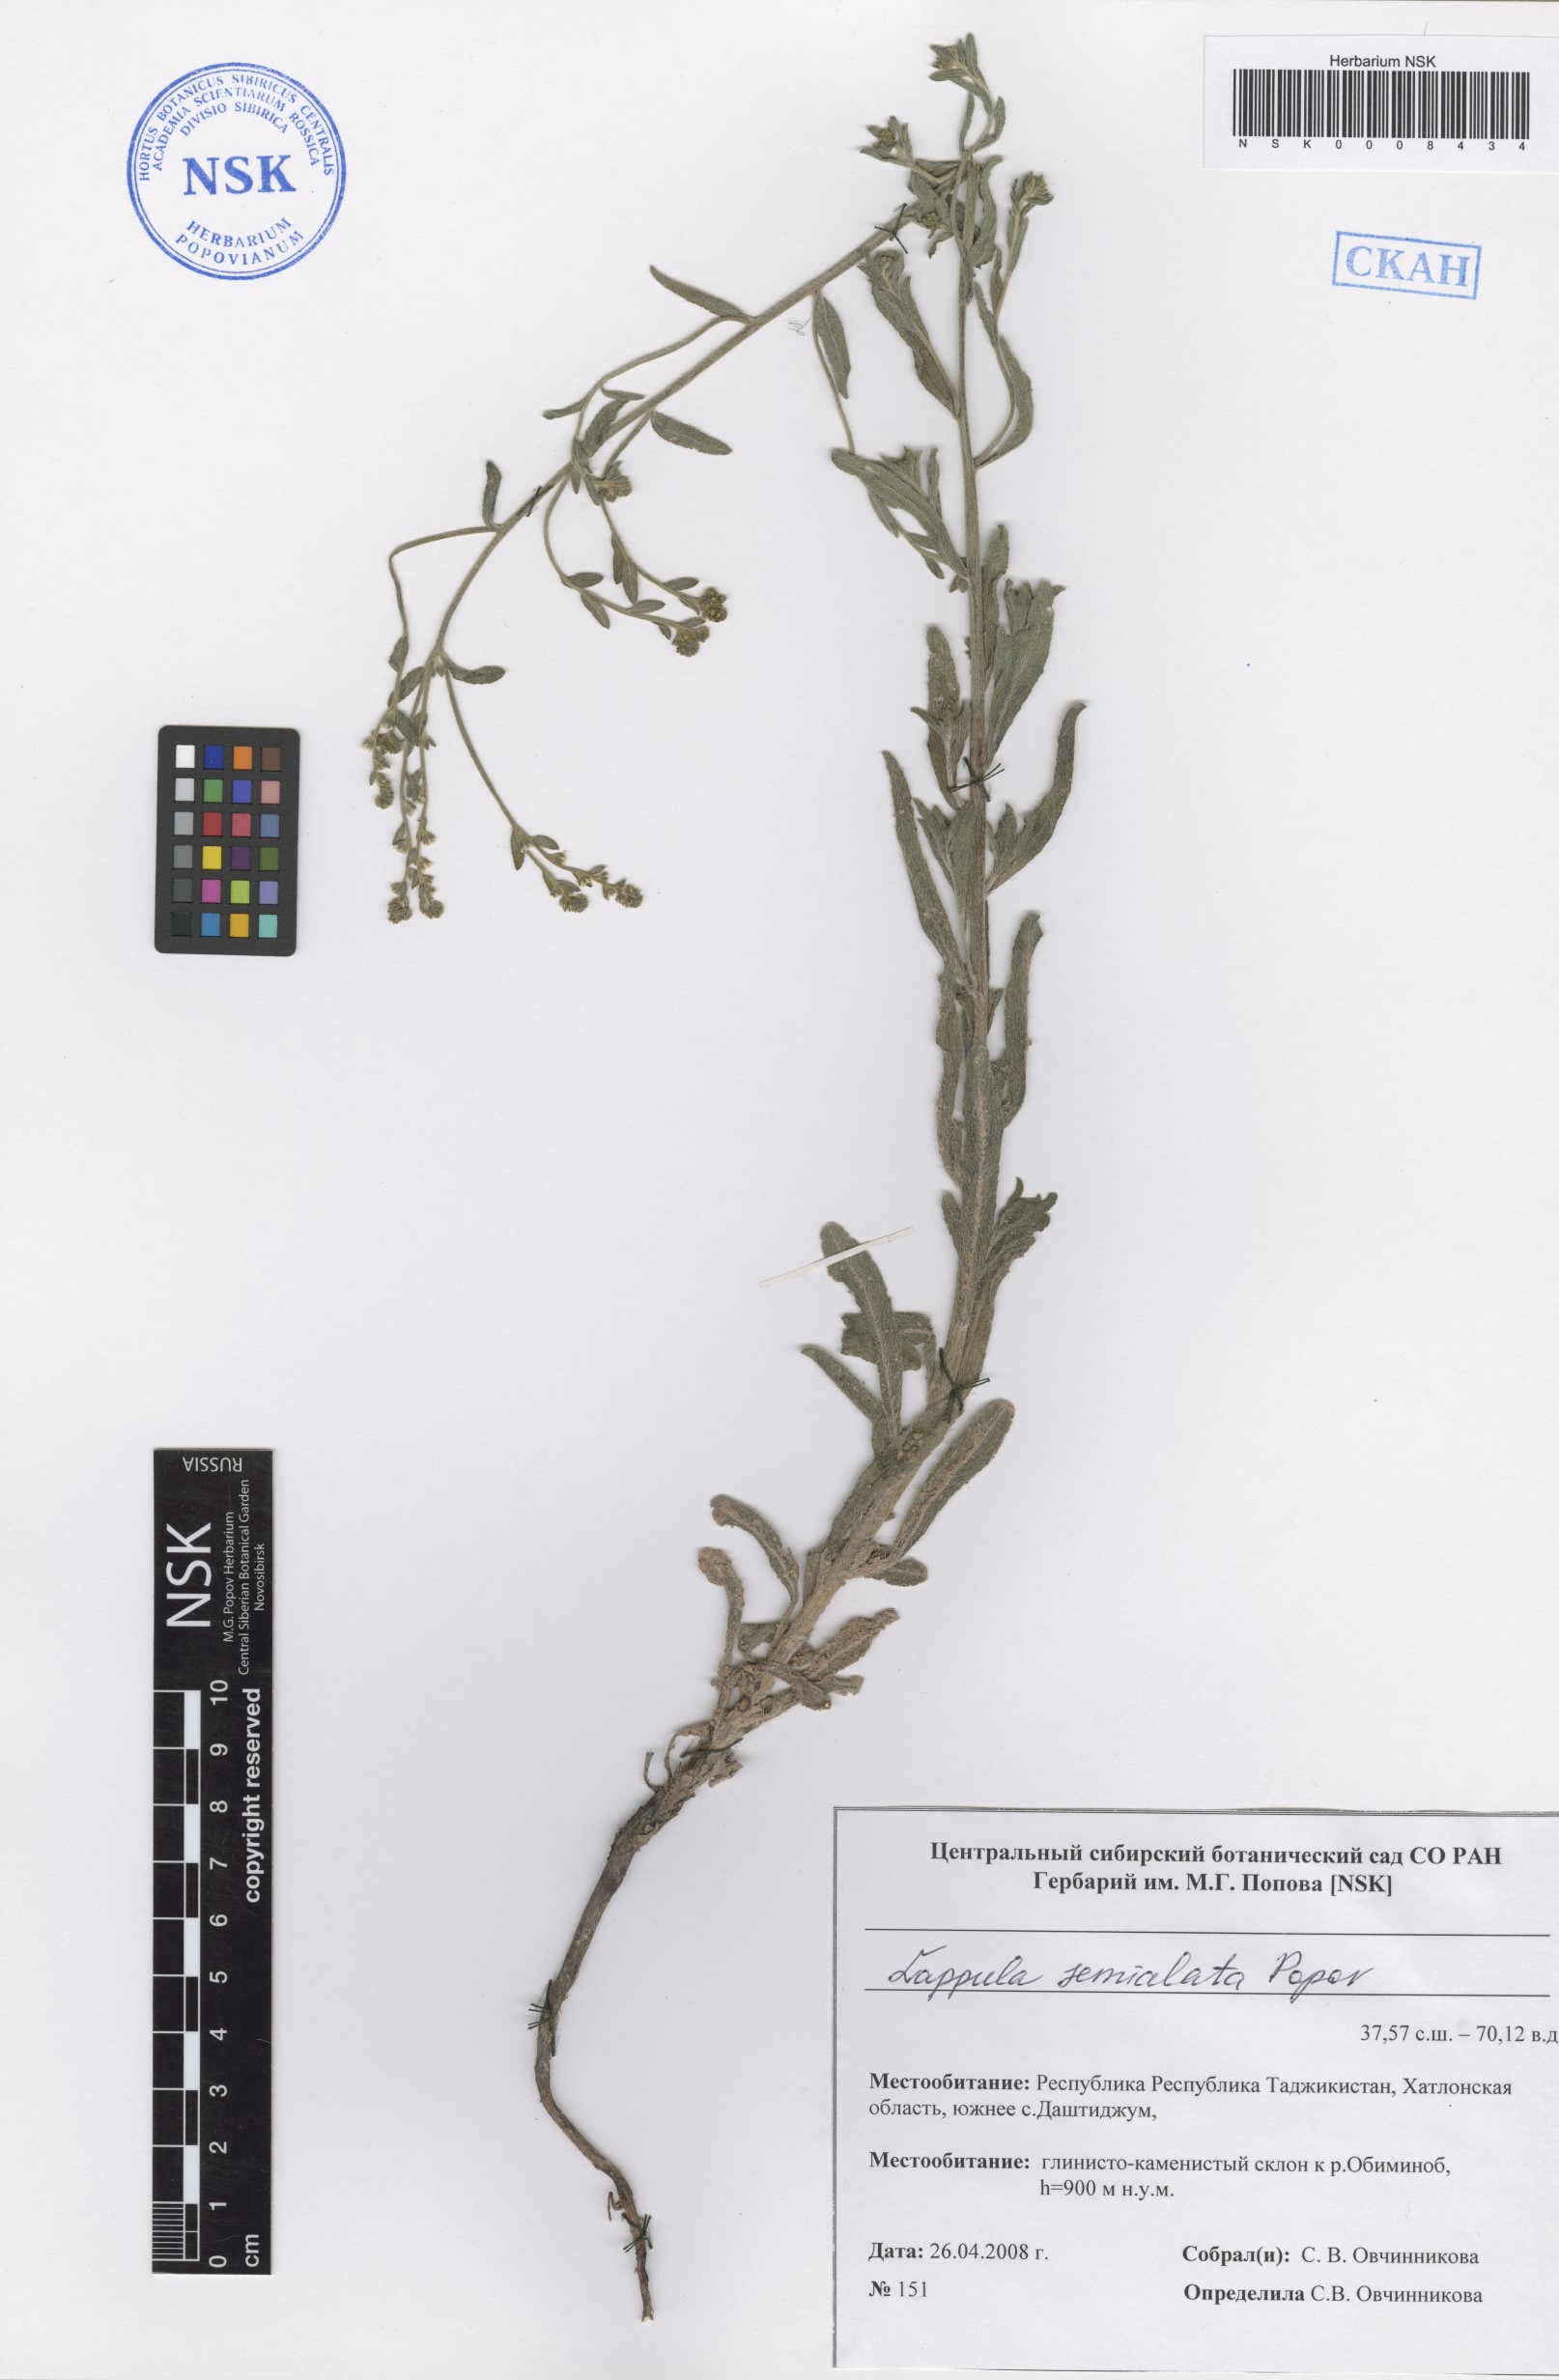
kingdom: Plantae
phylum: Tracheophyta
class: Magnoliopsida
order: Boraginales
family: Boraginaceae
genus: Lappula
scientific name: Lappula semialata
